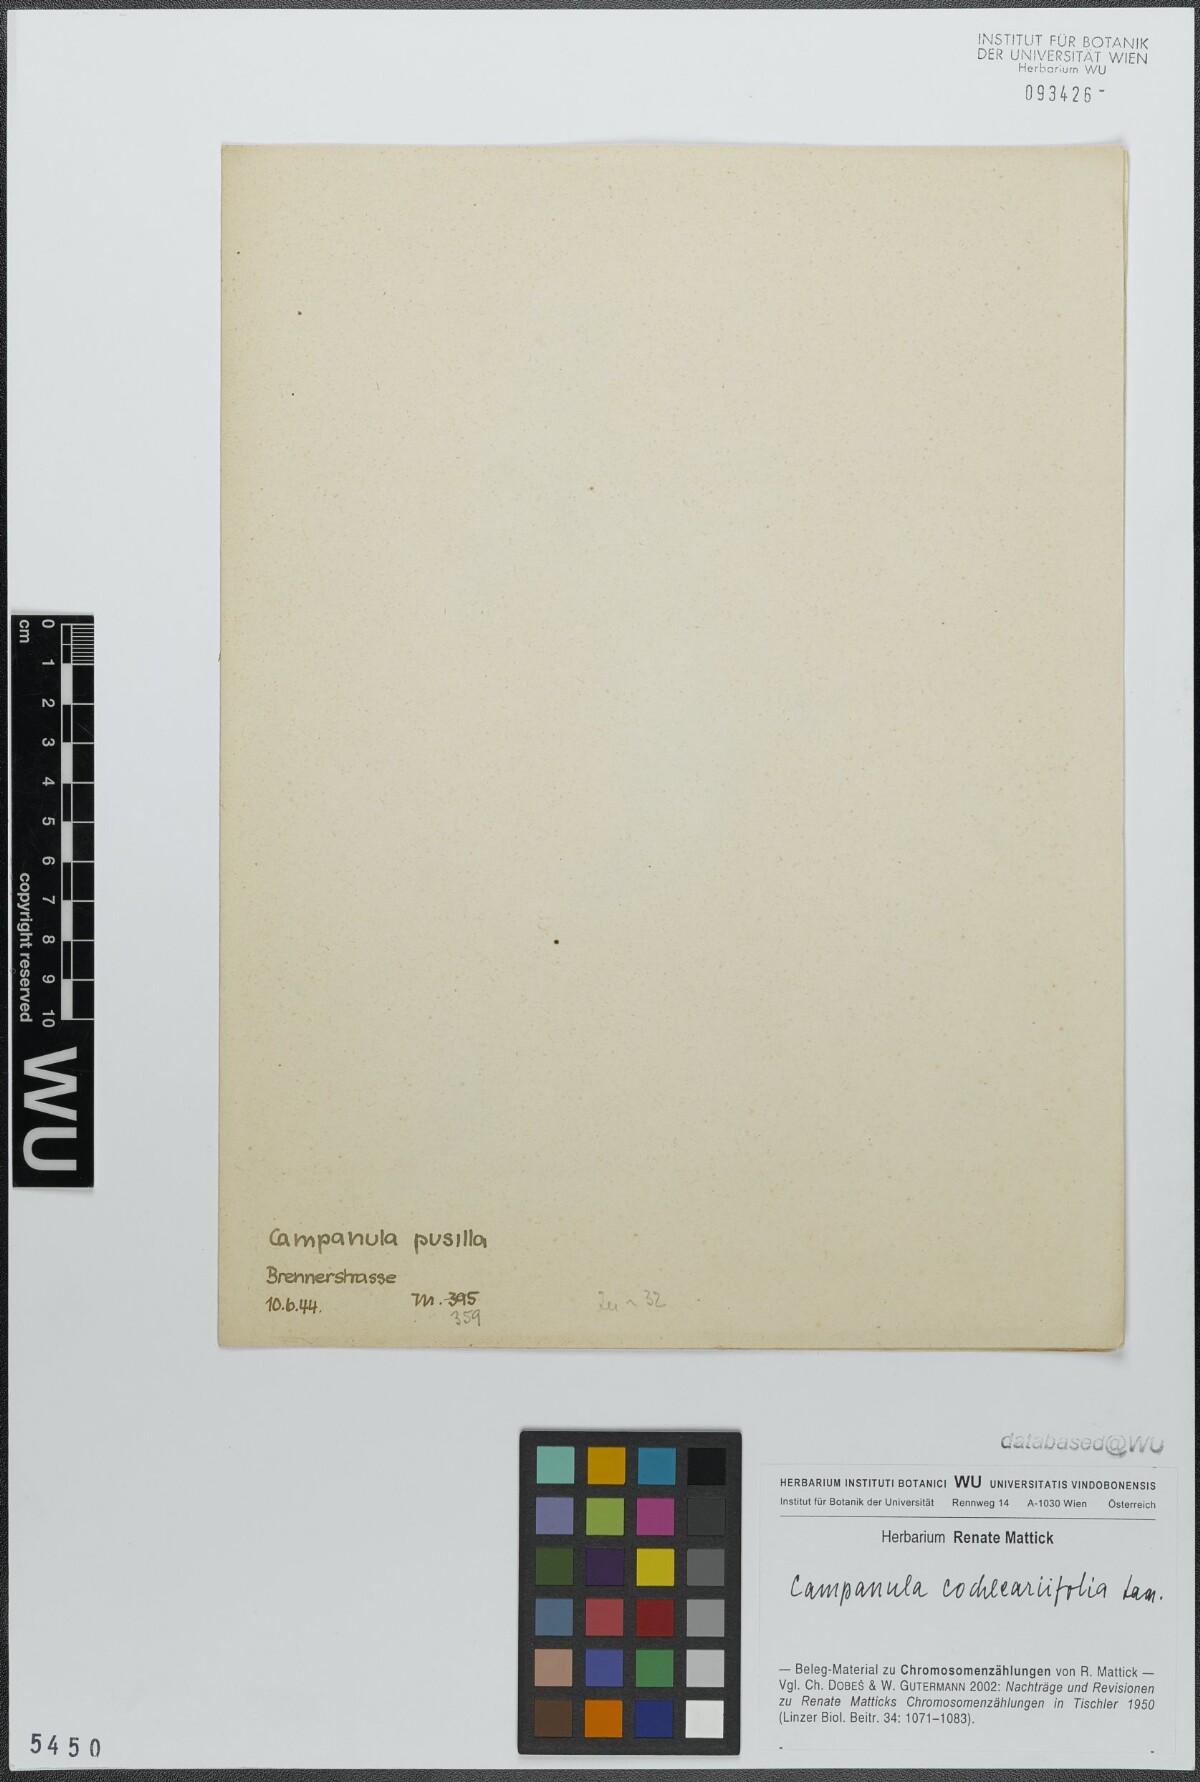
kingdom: Plantae
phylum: Tracheophyta
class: Magnoliopsida
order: Asterales
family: Campanulaceae
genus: Campanula
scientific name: Campanula cochleariifolia
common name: Fairies'-thimbles
